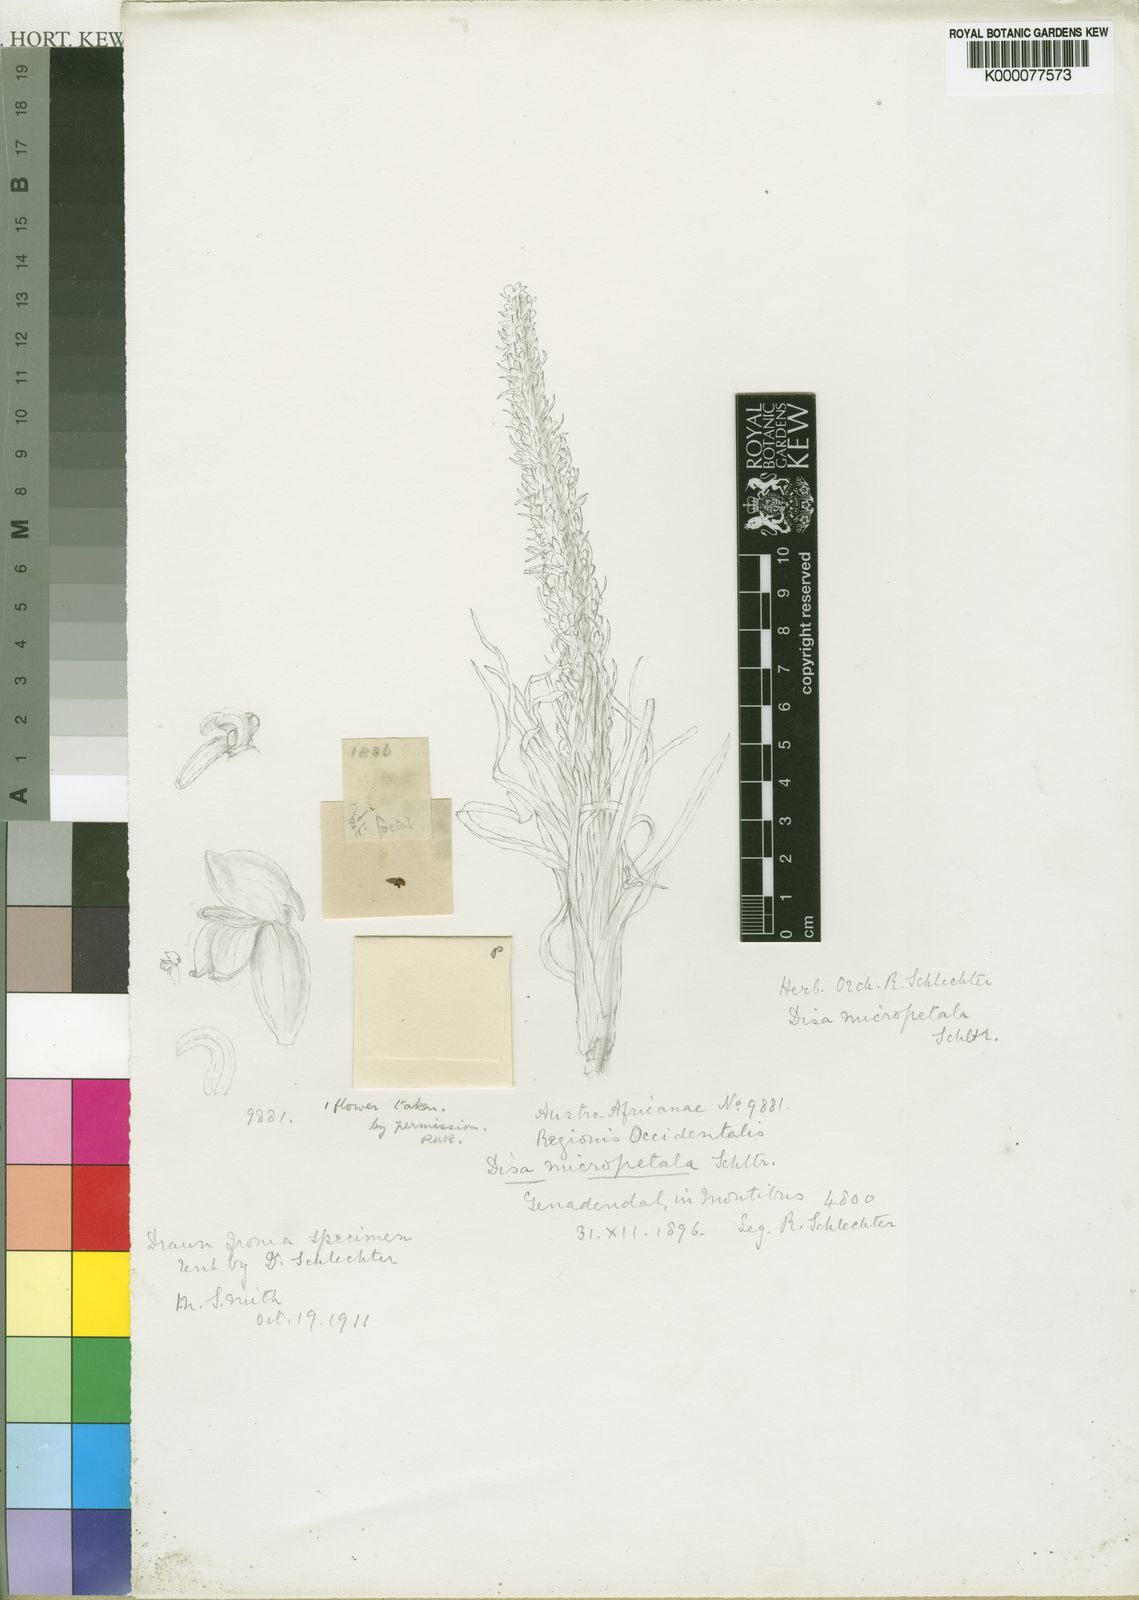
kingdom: Plantae
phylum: Tracheophyta
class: Liliopsida
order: Asparagales
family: Orchidaceae
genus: Disa
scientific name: Disa micropetala
